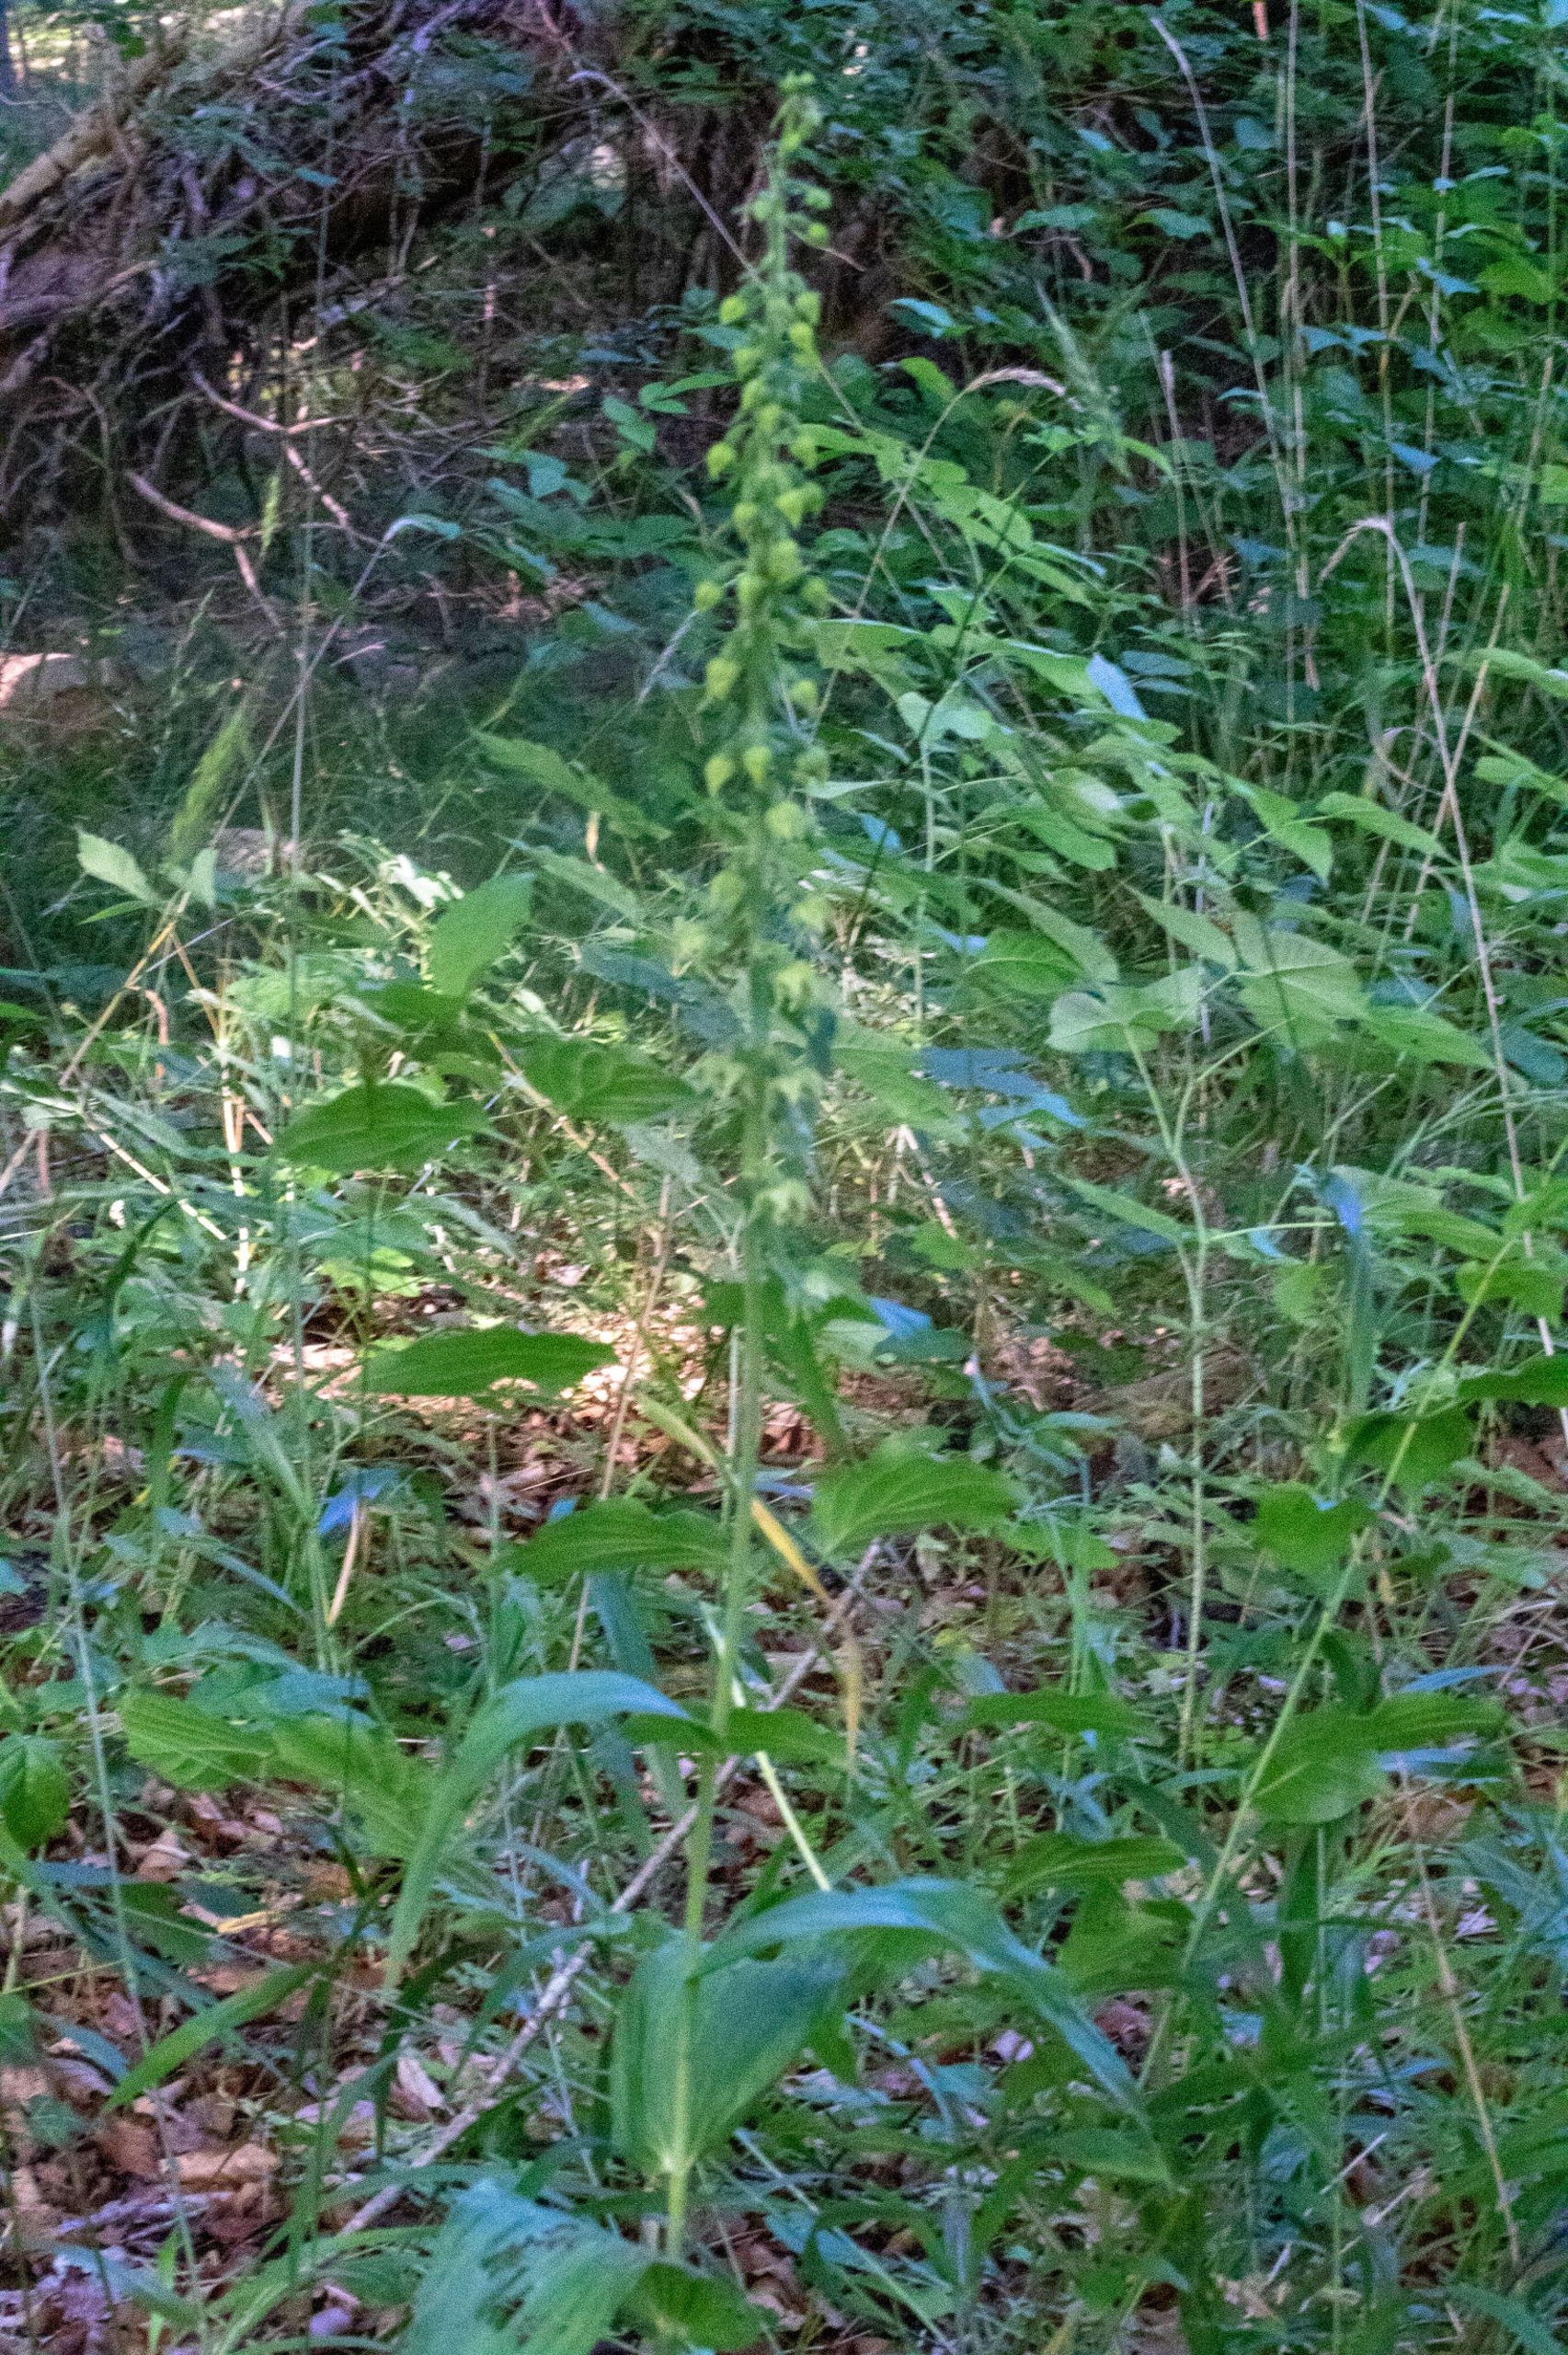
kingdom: Plantae
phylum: Tracheophyta
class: Liliopsida
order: Asparagales
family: Orchidaceae
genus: Epipactis
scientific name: Epipactis helleborine
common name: Skov-hullæbe
